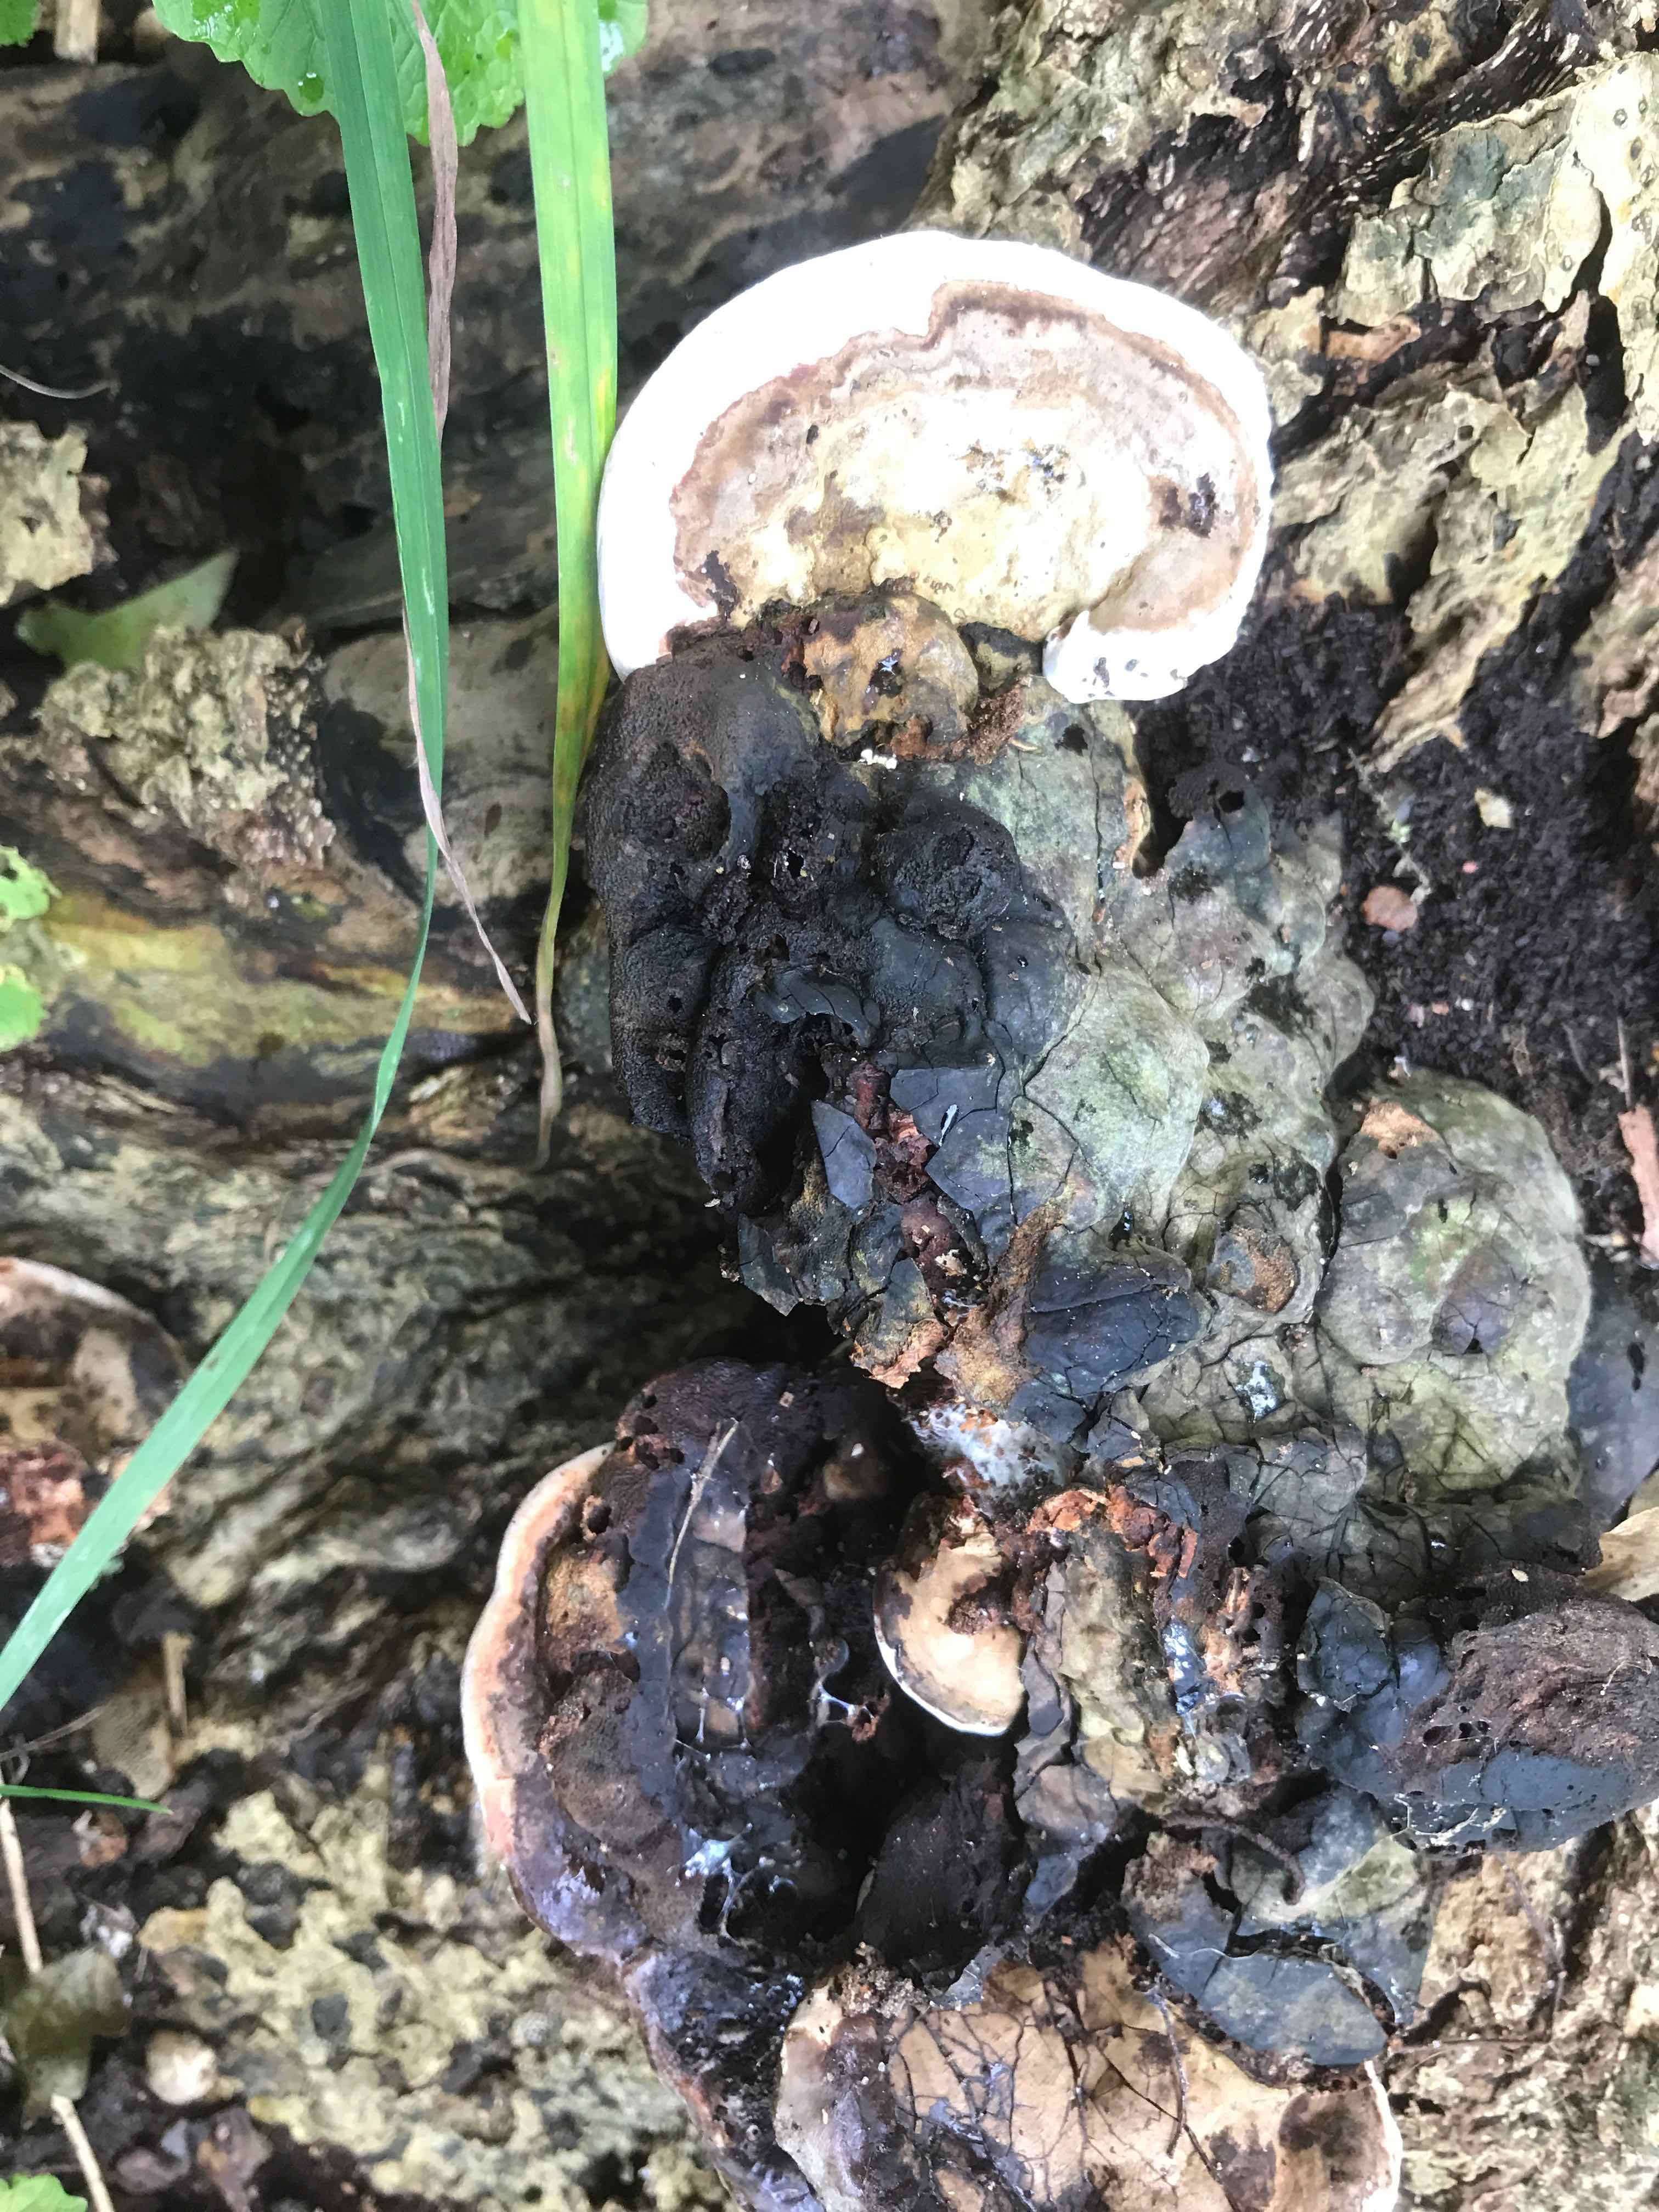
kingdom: Fungi
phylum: Basidiomycota
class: Agaricomycetes
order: Polyporales
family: Polyporaceae
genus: Ganoderma
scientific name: Ganoderma applanatum
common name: flad lakporesvamp
